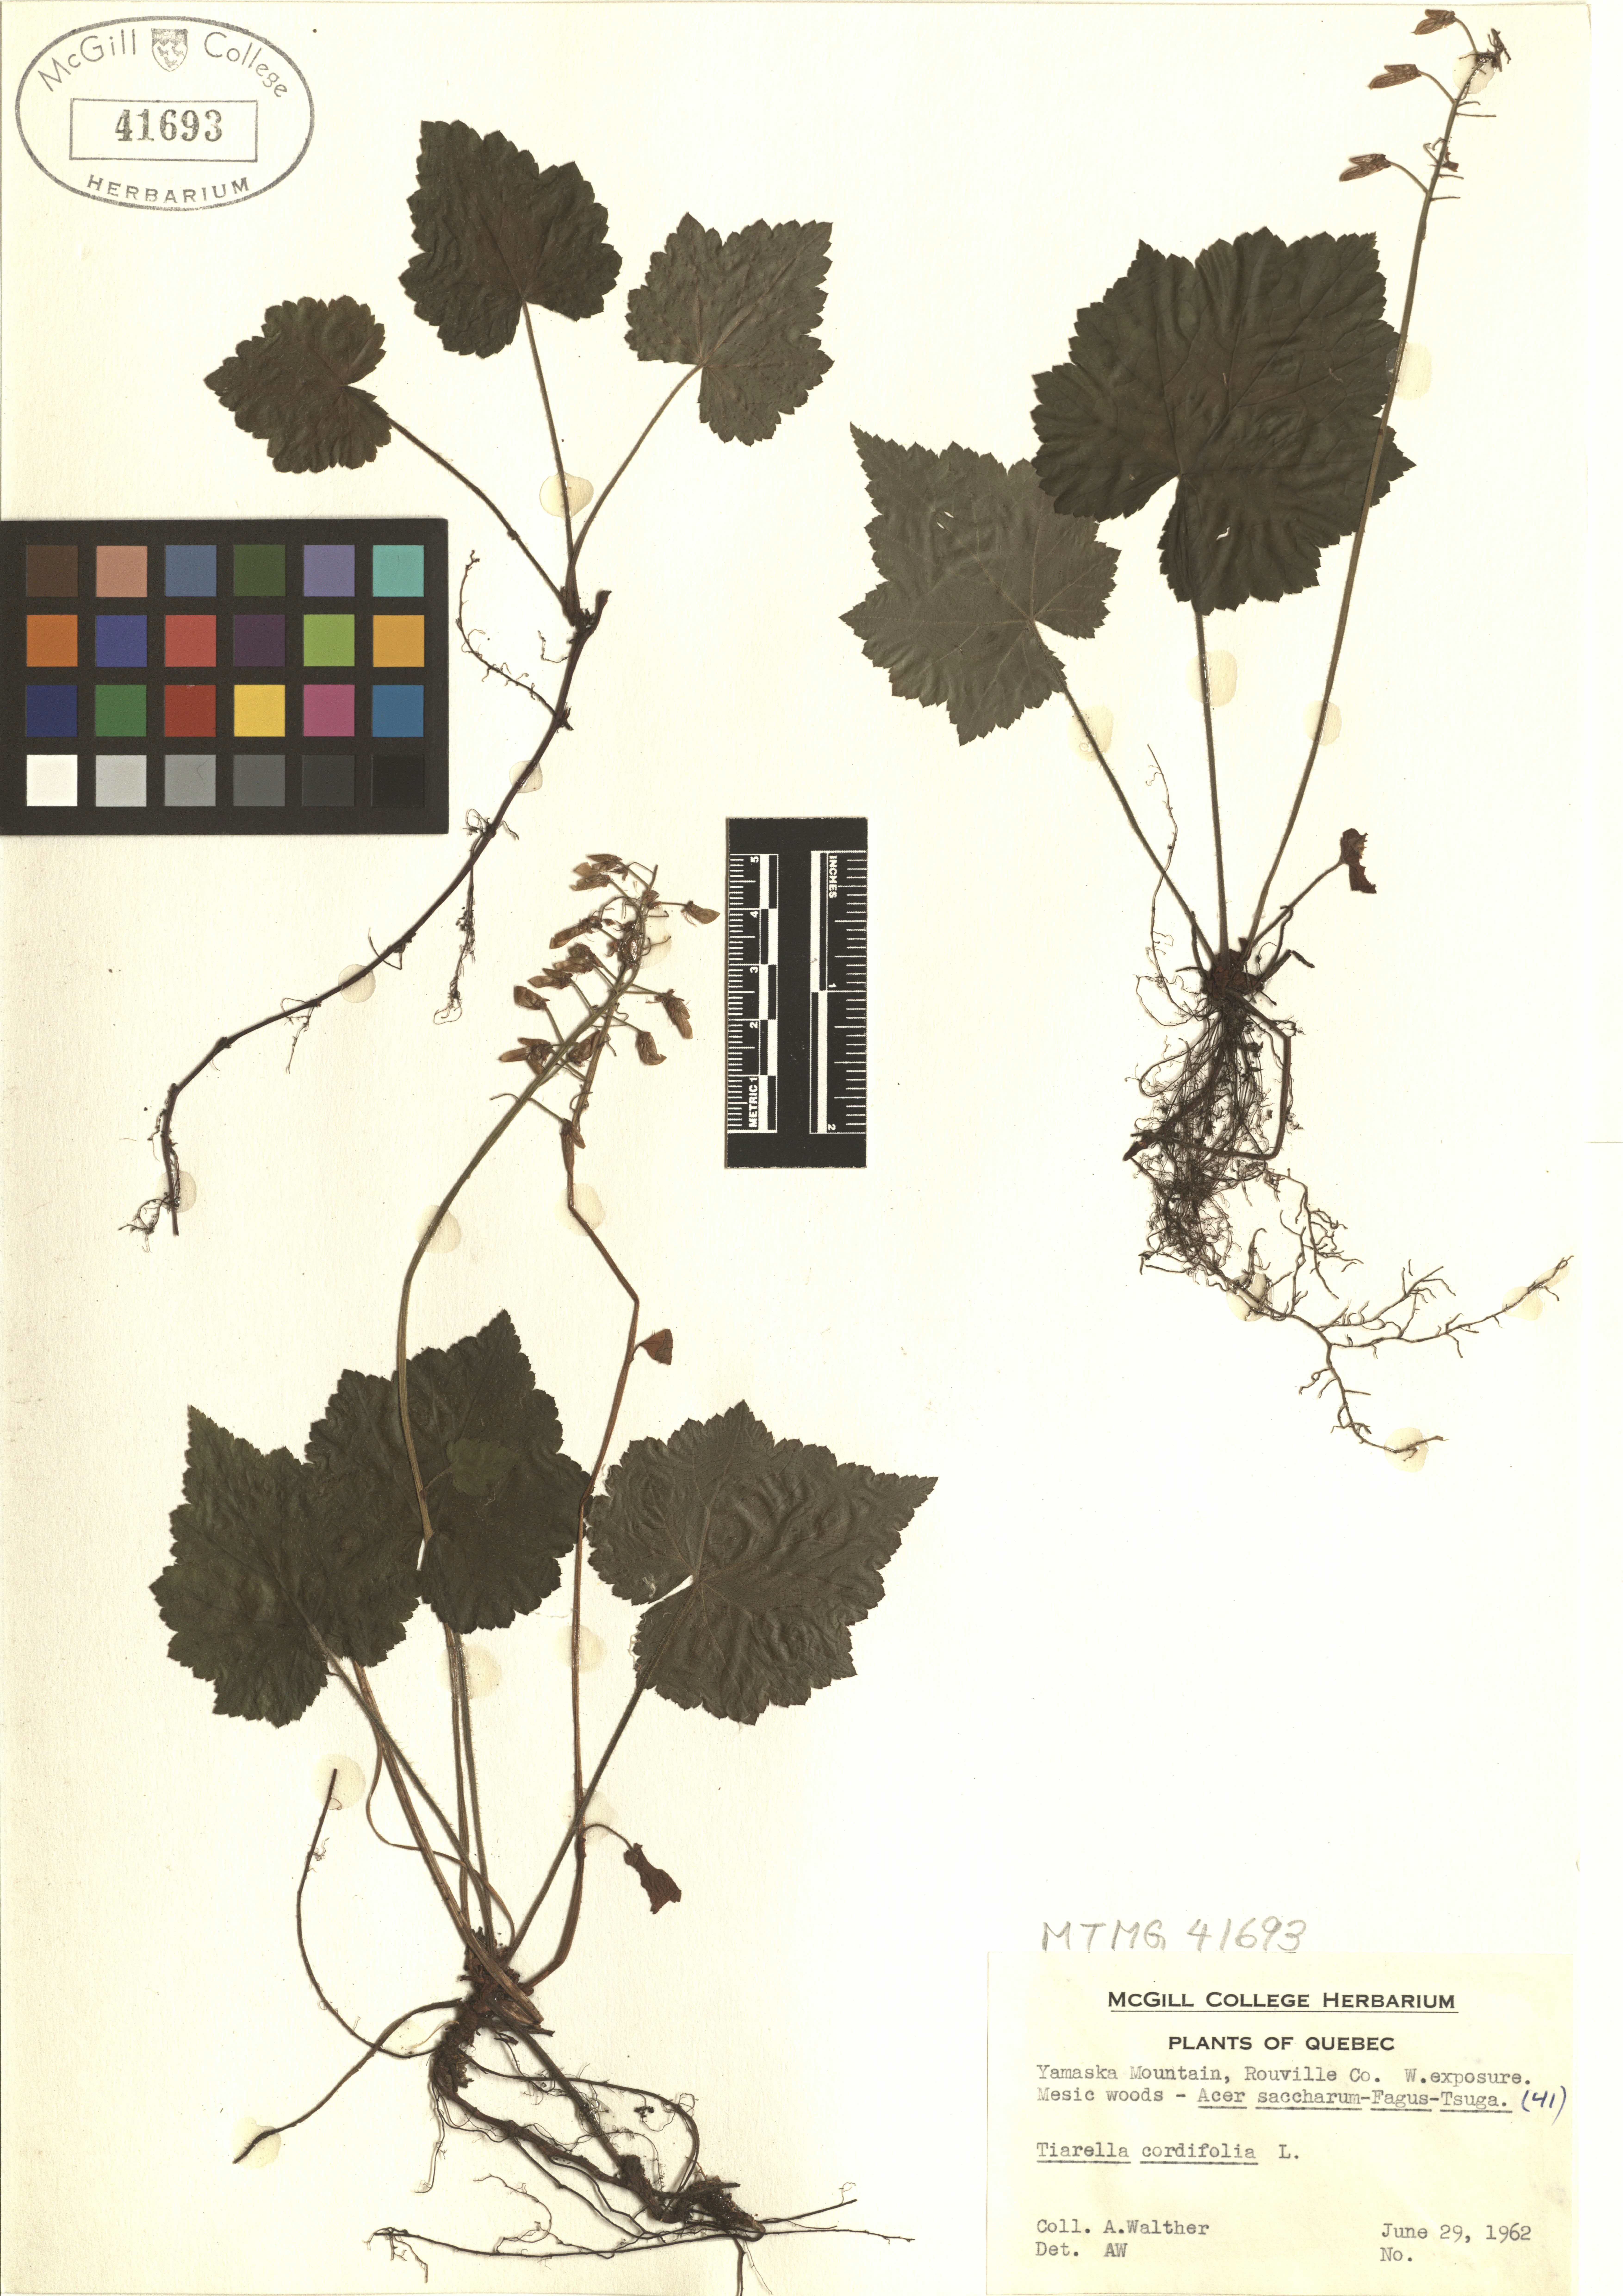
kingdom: Plantae
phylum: Tracheophyta
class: Magnoliopsida
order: Saxifragales
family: Saxifragaceae
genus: Tiarella
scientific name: Tiarella cordifolia
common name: Foamflower
